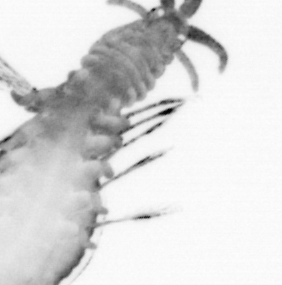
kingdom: Animalia
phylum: Annelida
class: Polychaeta
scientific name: Polychaeta
